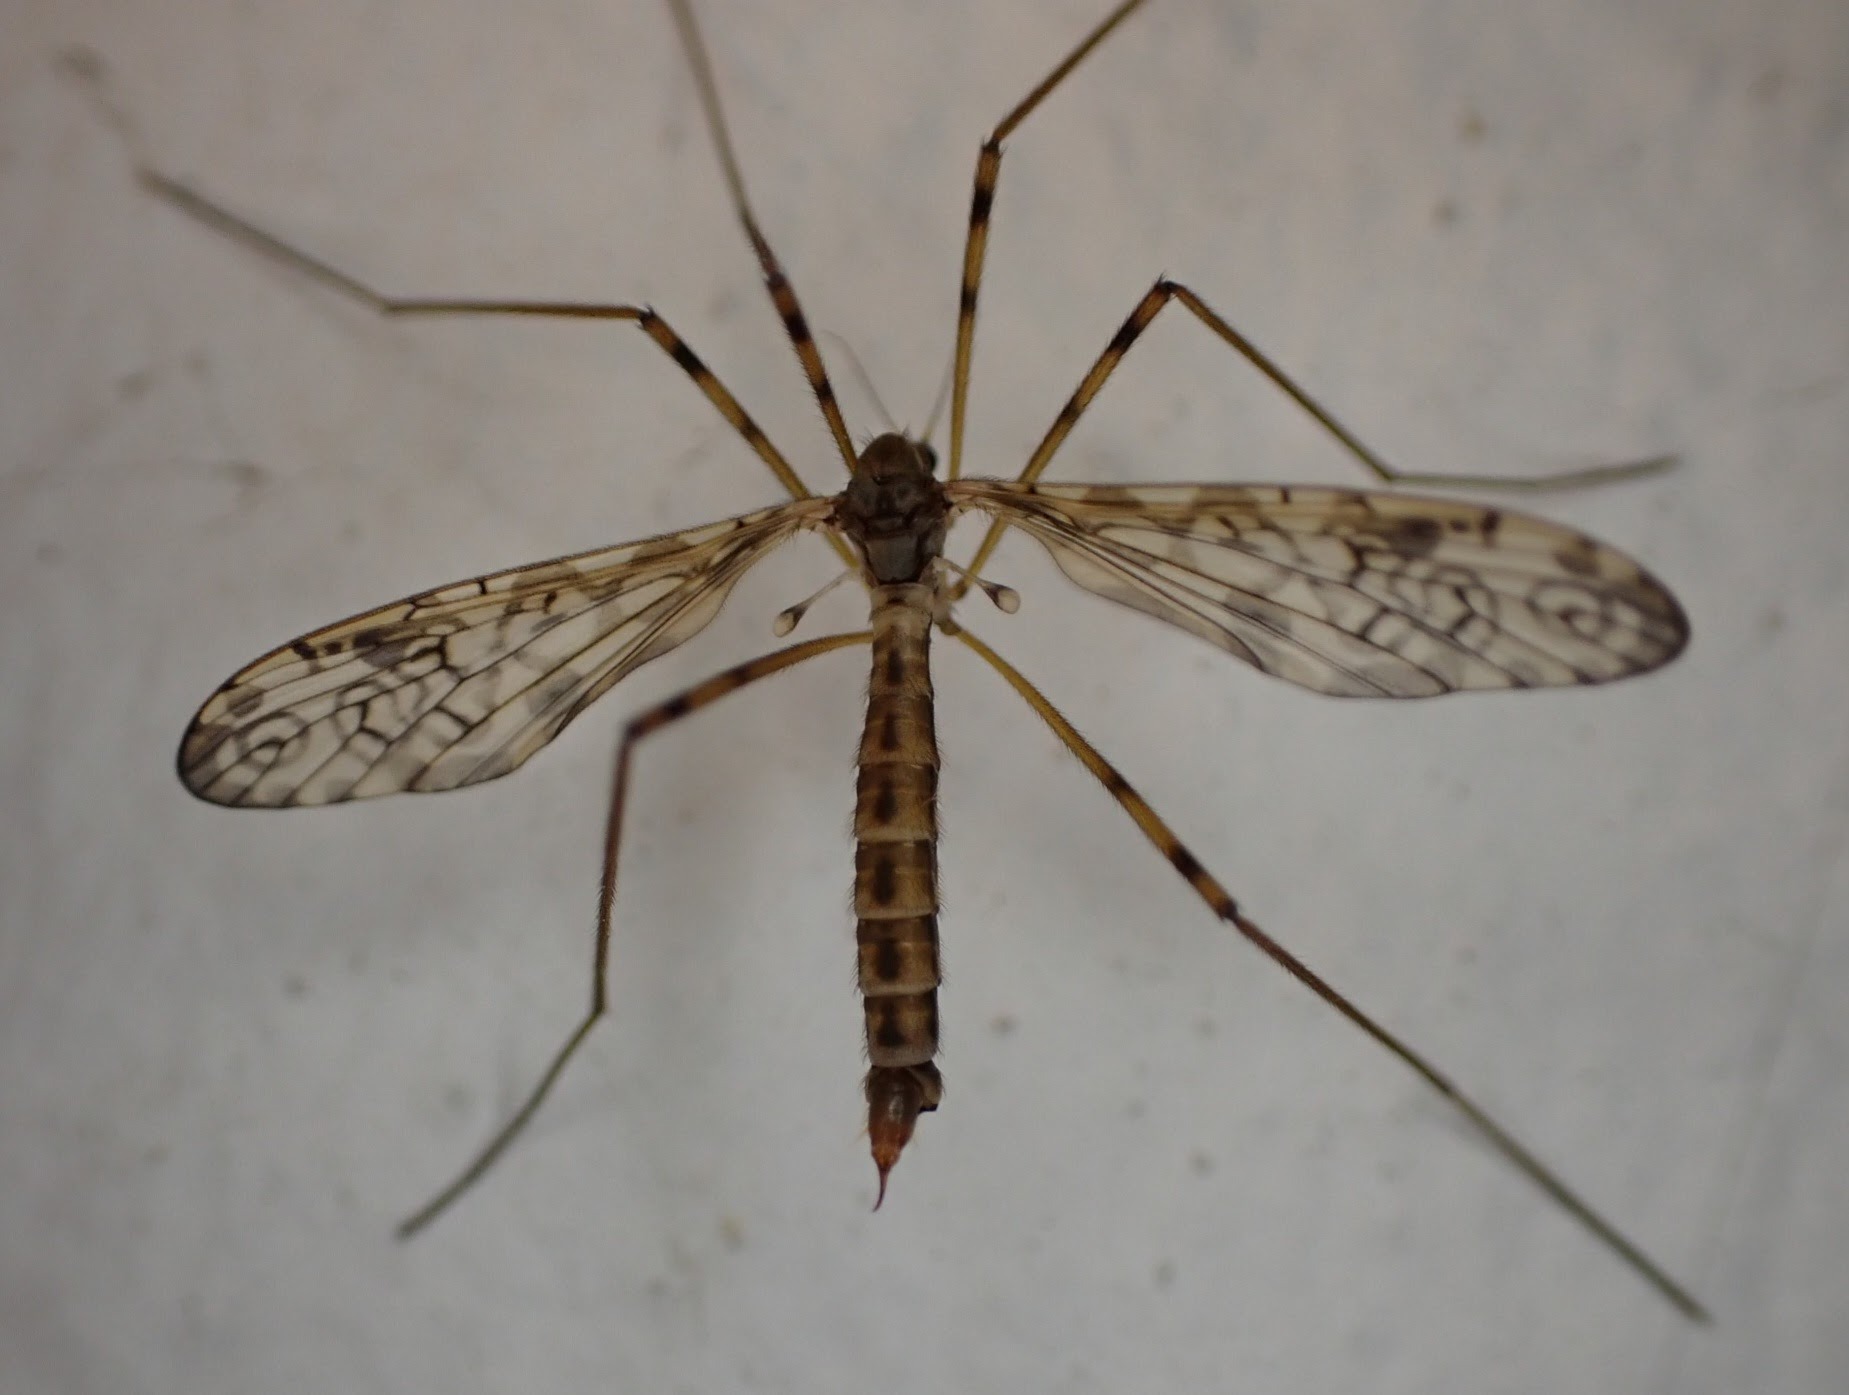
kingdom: Animalia
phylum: Arthropoda
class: Insecta
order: Diptera
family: Limoniidae
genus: Epiphragma
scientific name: Epiphragma ocellare
